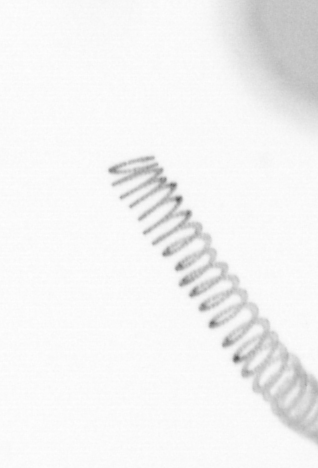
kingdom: Chromista
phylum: Ochrophyta
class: Bacillariophyceae
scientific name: Bacillariophyceae
